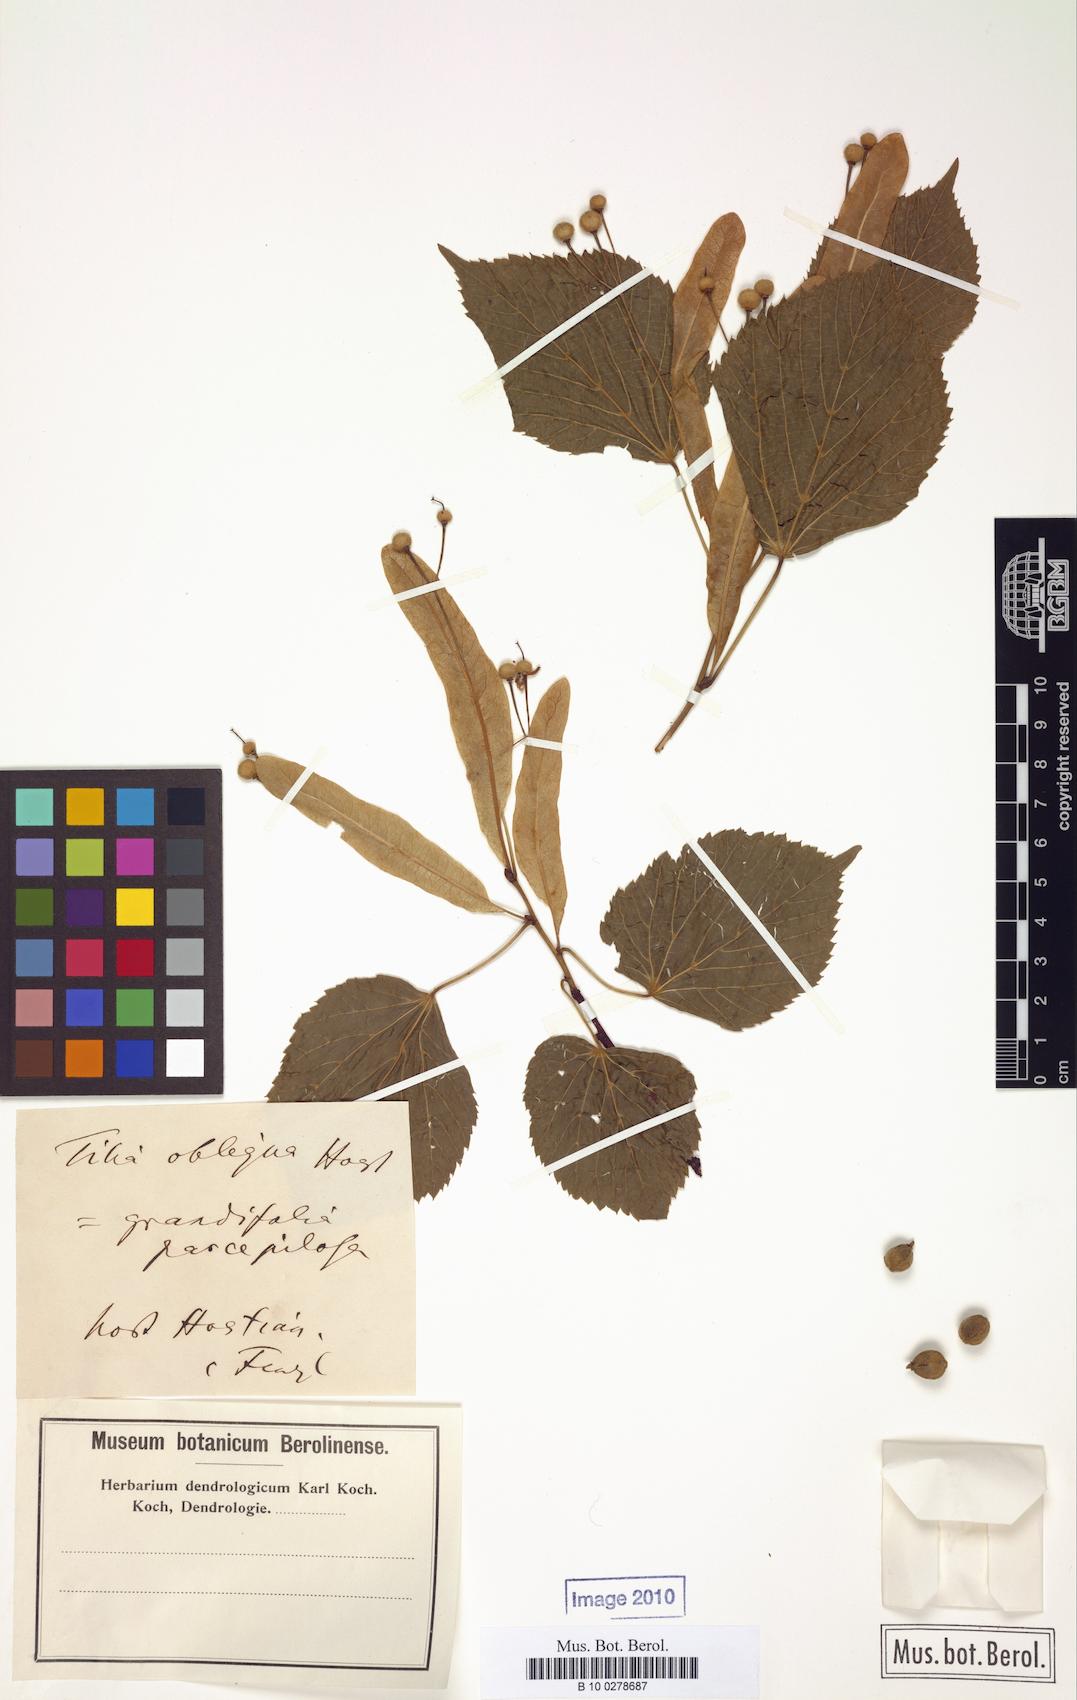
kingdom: Plantae
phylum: Tracheophyta
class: Magnoliopsida
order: Malvales
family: Malvaceae
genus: Tilia
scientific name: Tilia platyphyllos
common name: Large-leaved lime
